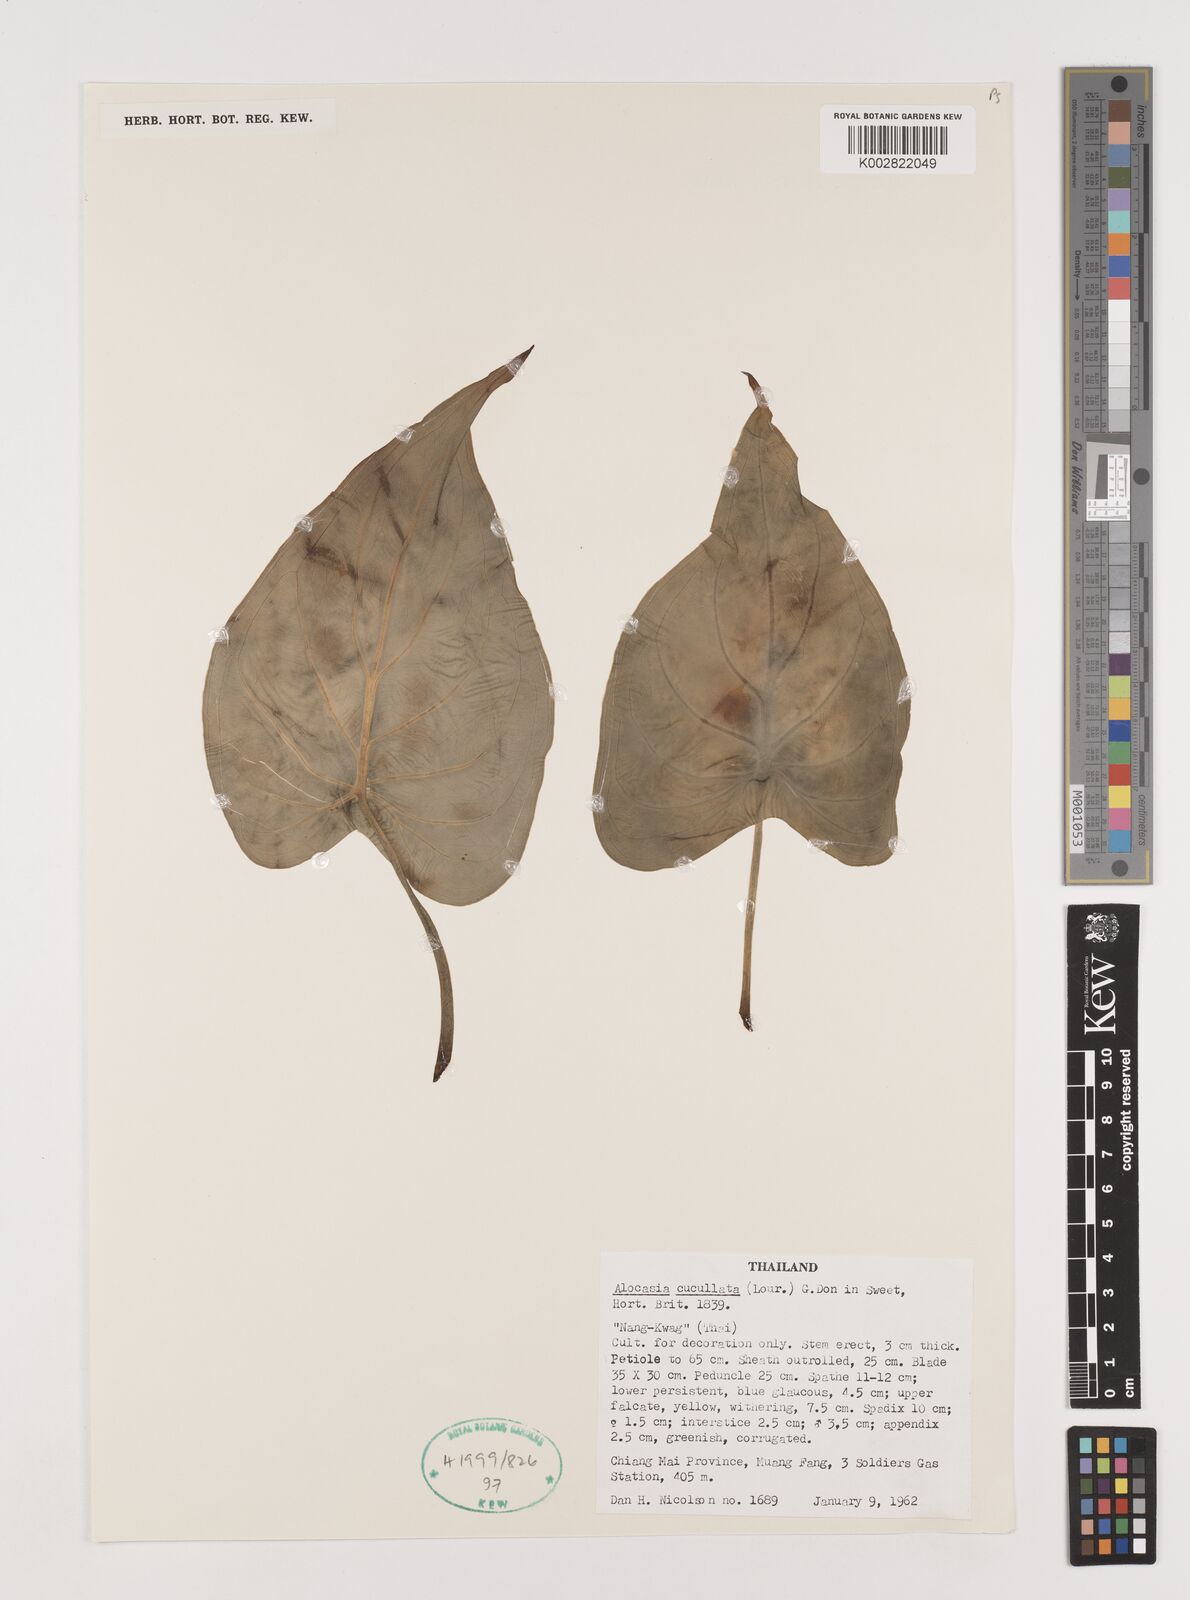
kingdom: Plantae
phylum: Tracheophyta
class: Liliopsida
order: Alismatales
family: Araceae
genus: Alocasia
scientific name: Alocasia cucullata
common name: Buddha's hand
